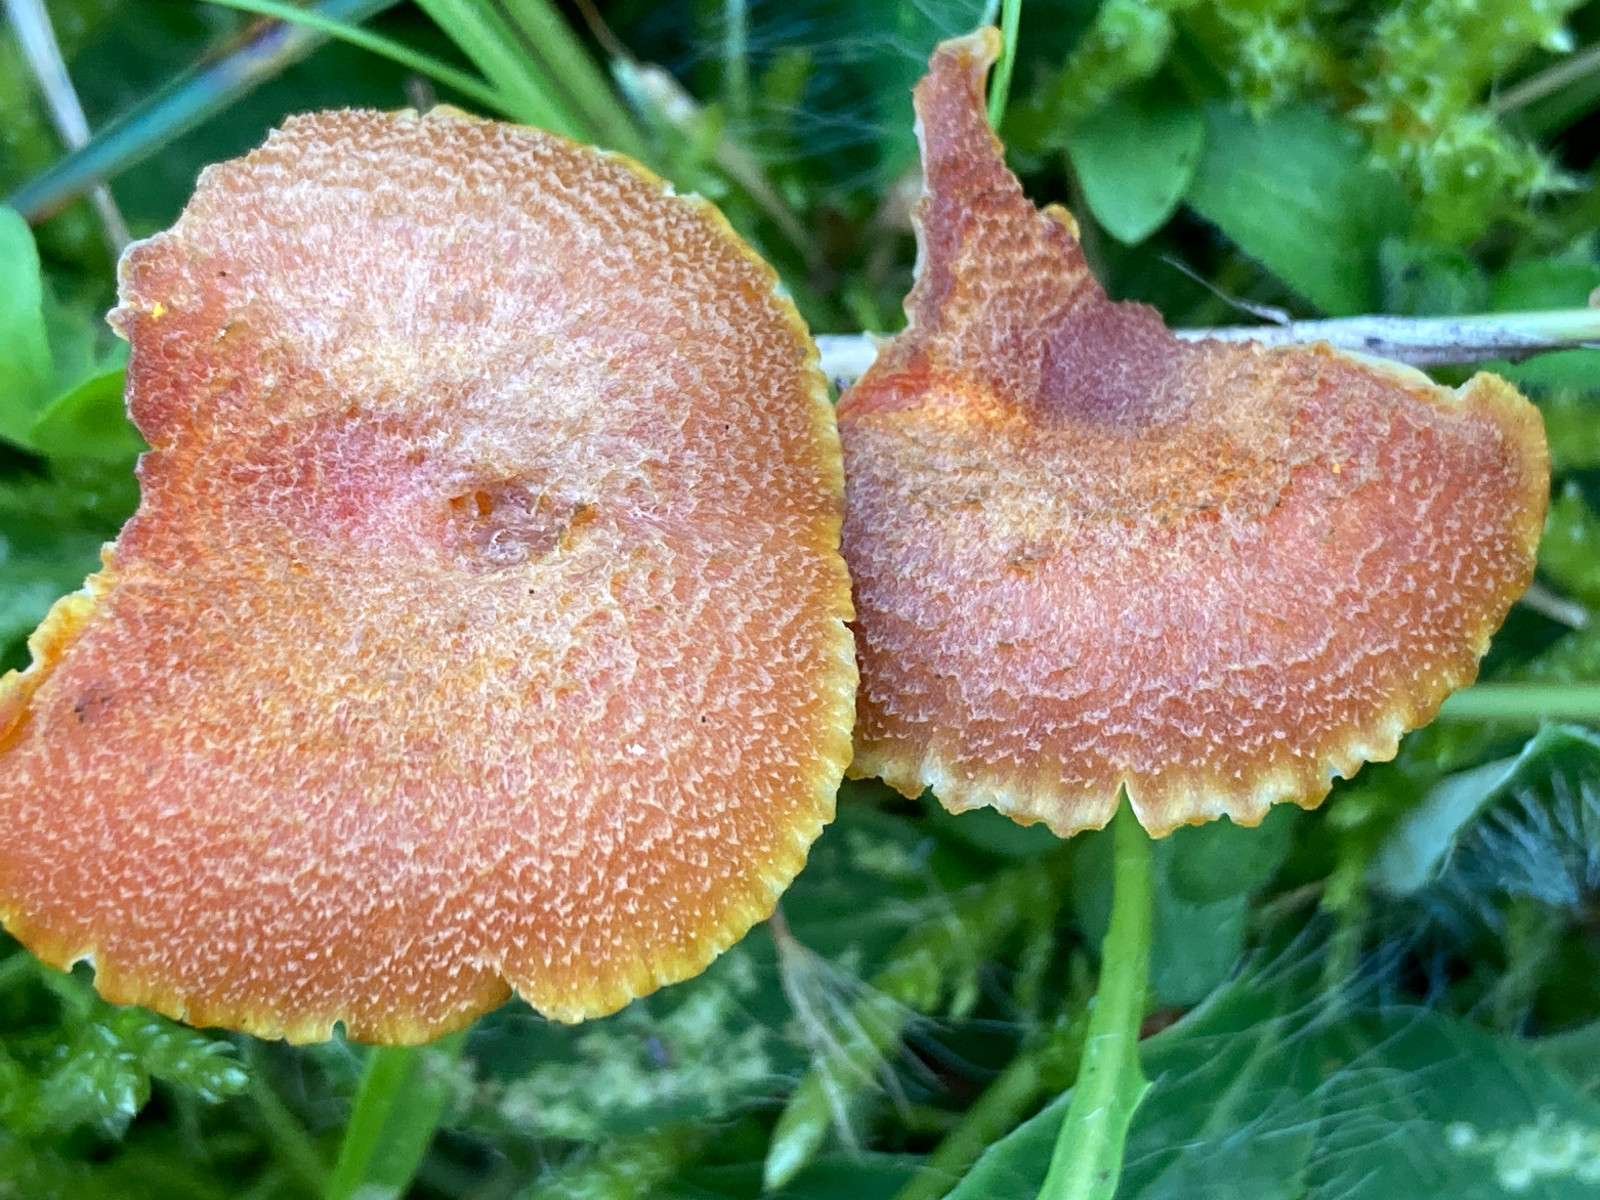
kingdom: Fungi
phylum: Basidiomycota
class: Agaricomycetes
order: Agaricales
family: Hygrophoraceae
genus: Hygrocybe
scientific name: Hygrocybe cantharellus
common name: kantarel-vokshat
